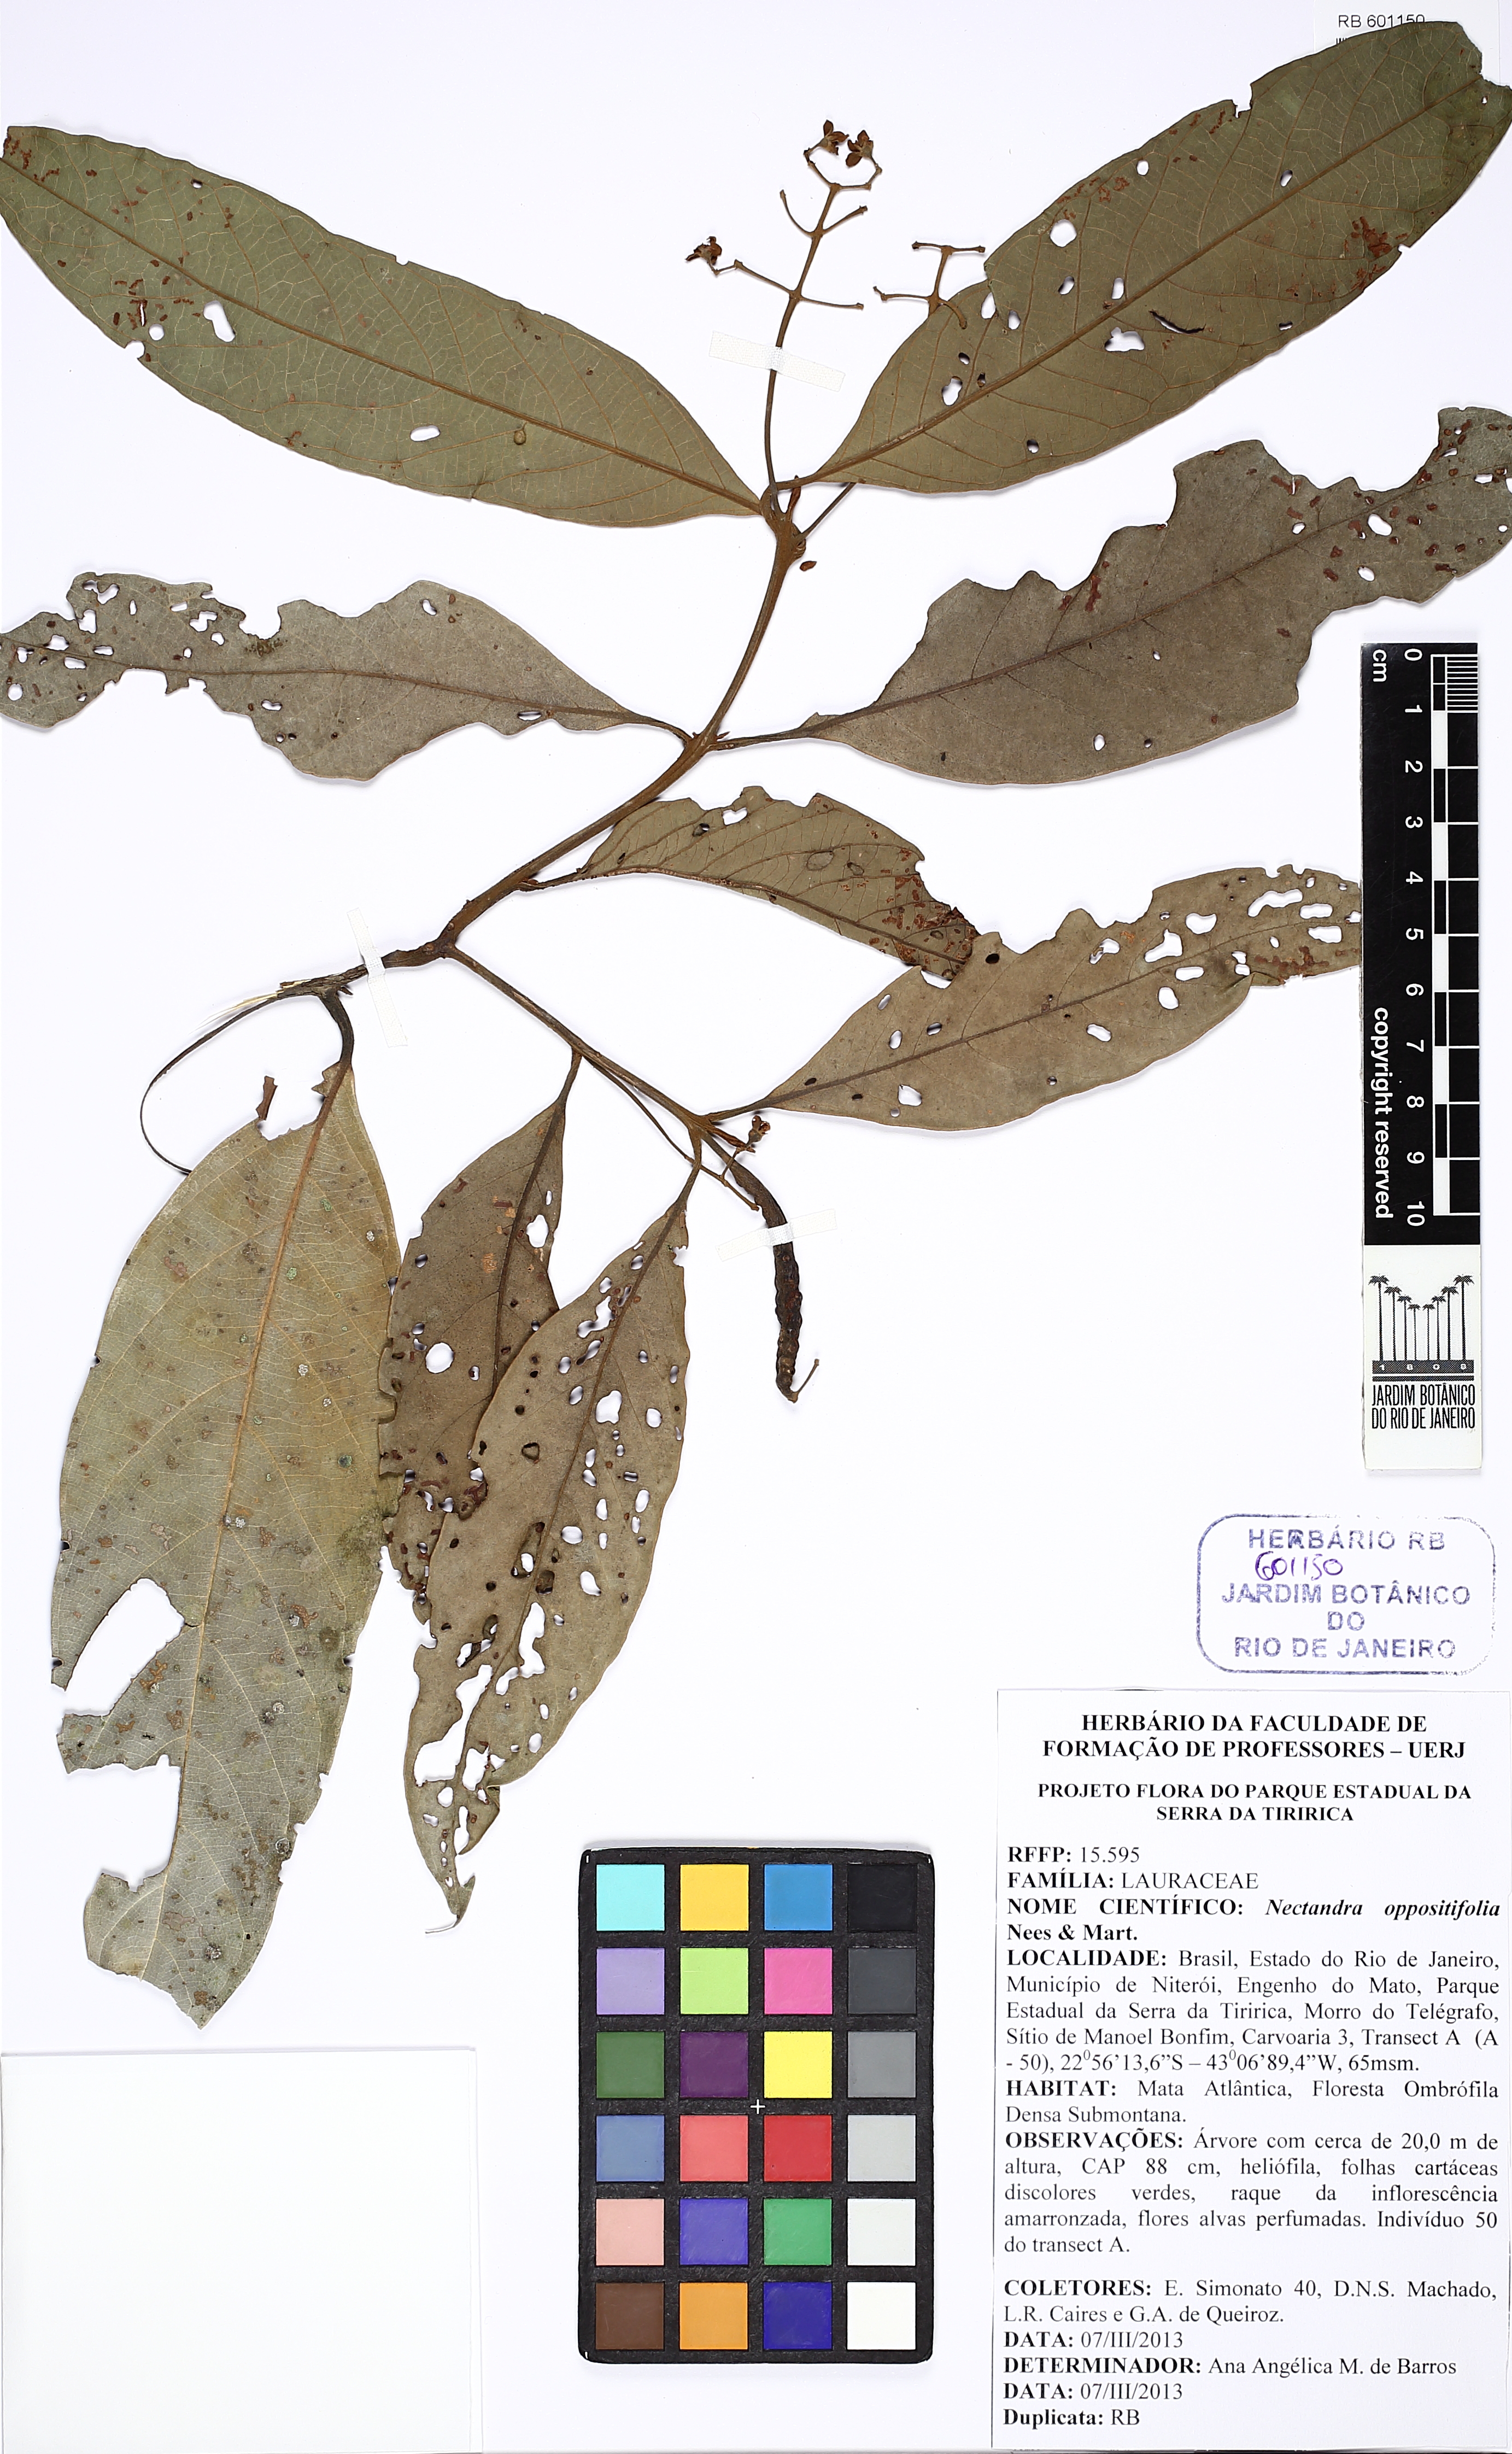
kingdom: Plantae
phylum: Tracheophyta
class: Magnoliopsida
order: Laurales
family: Lauraceae
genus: Nectandra
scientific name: Nectandra oppositifolia
